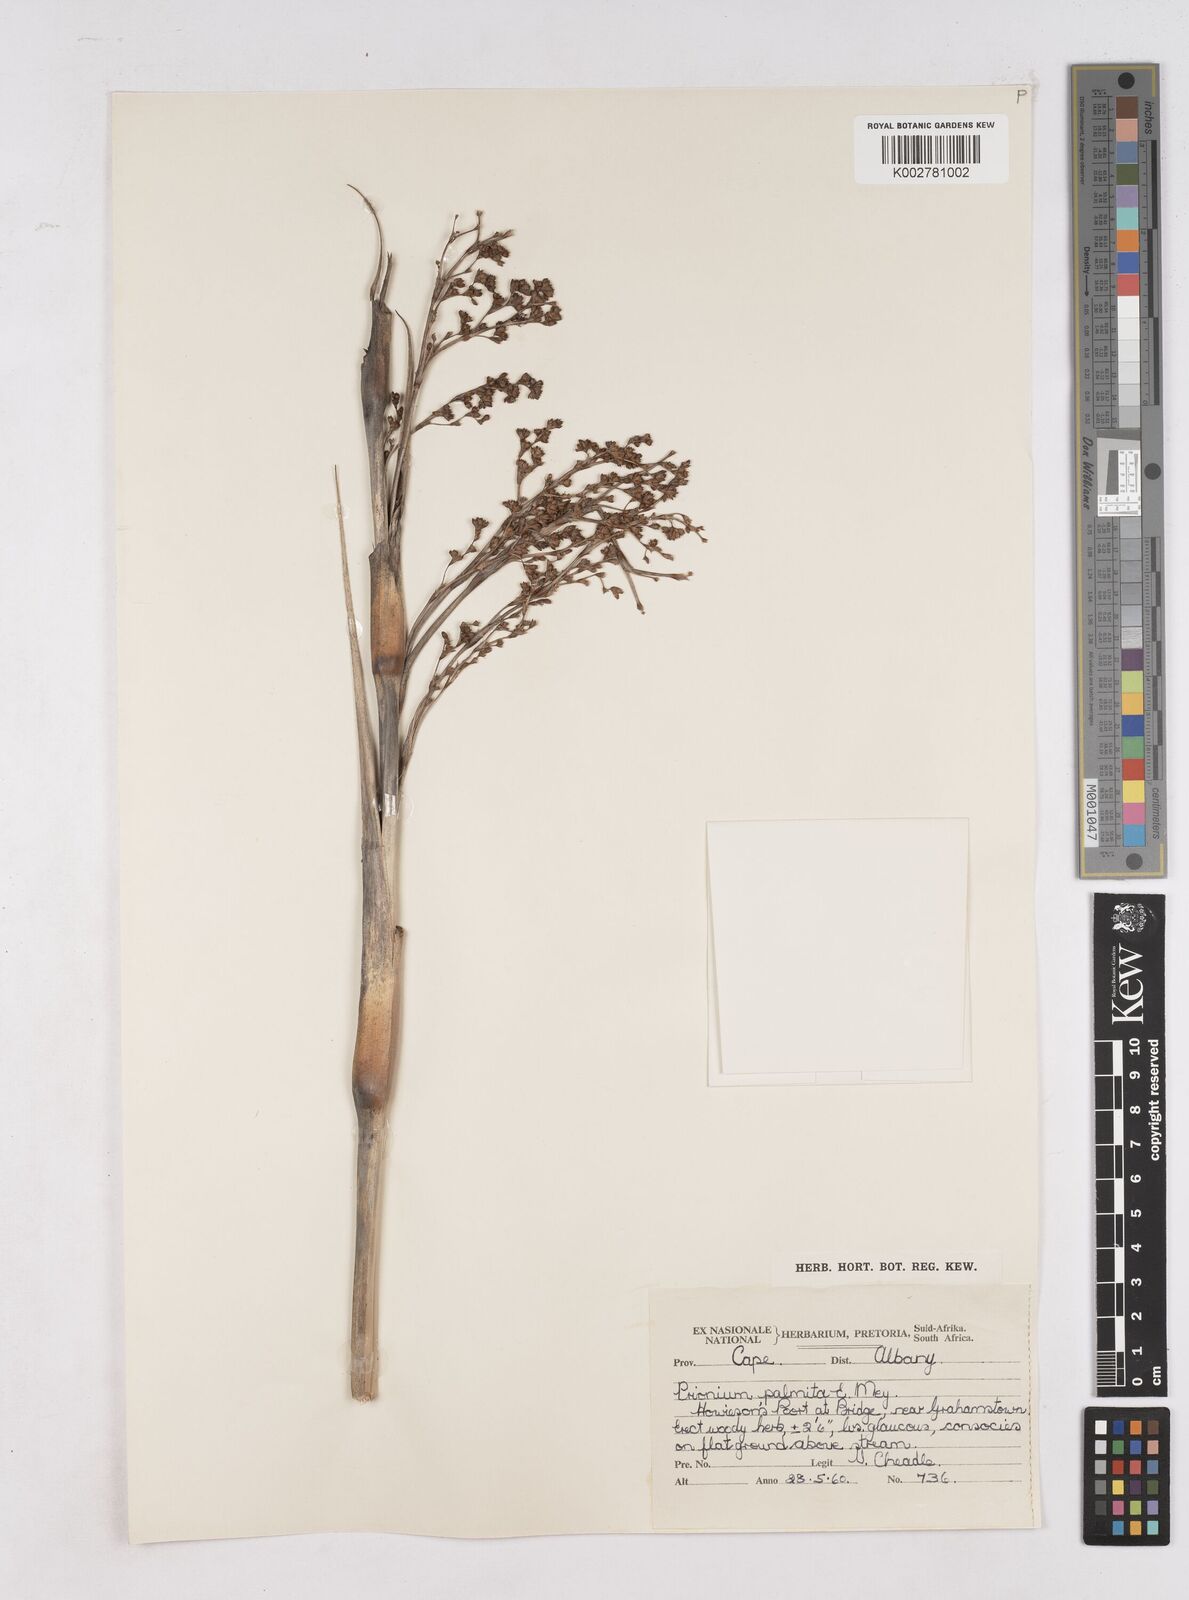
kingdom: Plantae
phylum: Tracheophyta
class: Liliopsida
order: Poales
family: Thurniaceae
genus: Prionium
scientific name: Prionium serratum
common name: Palmiet
